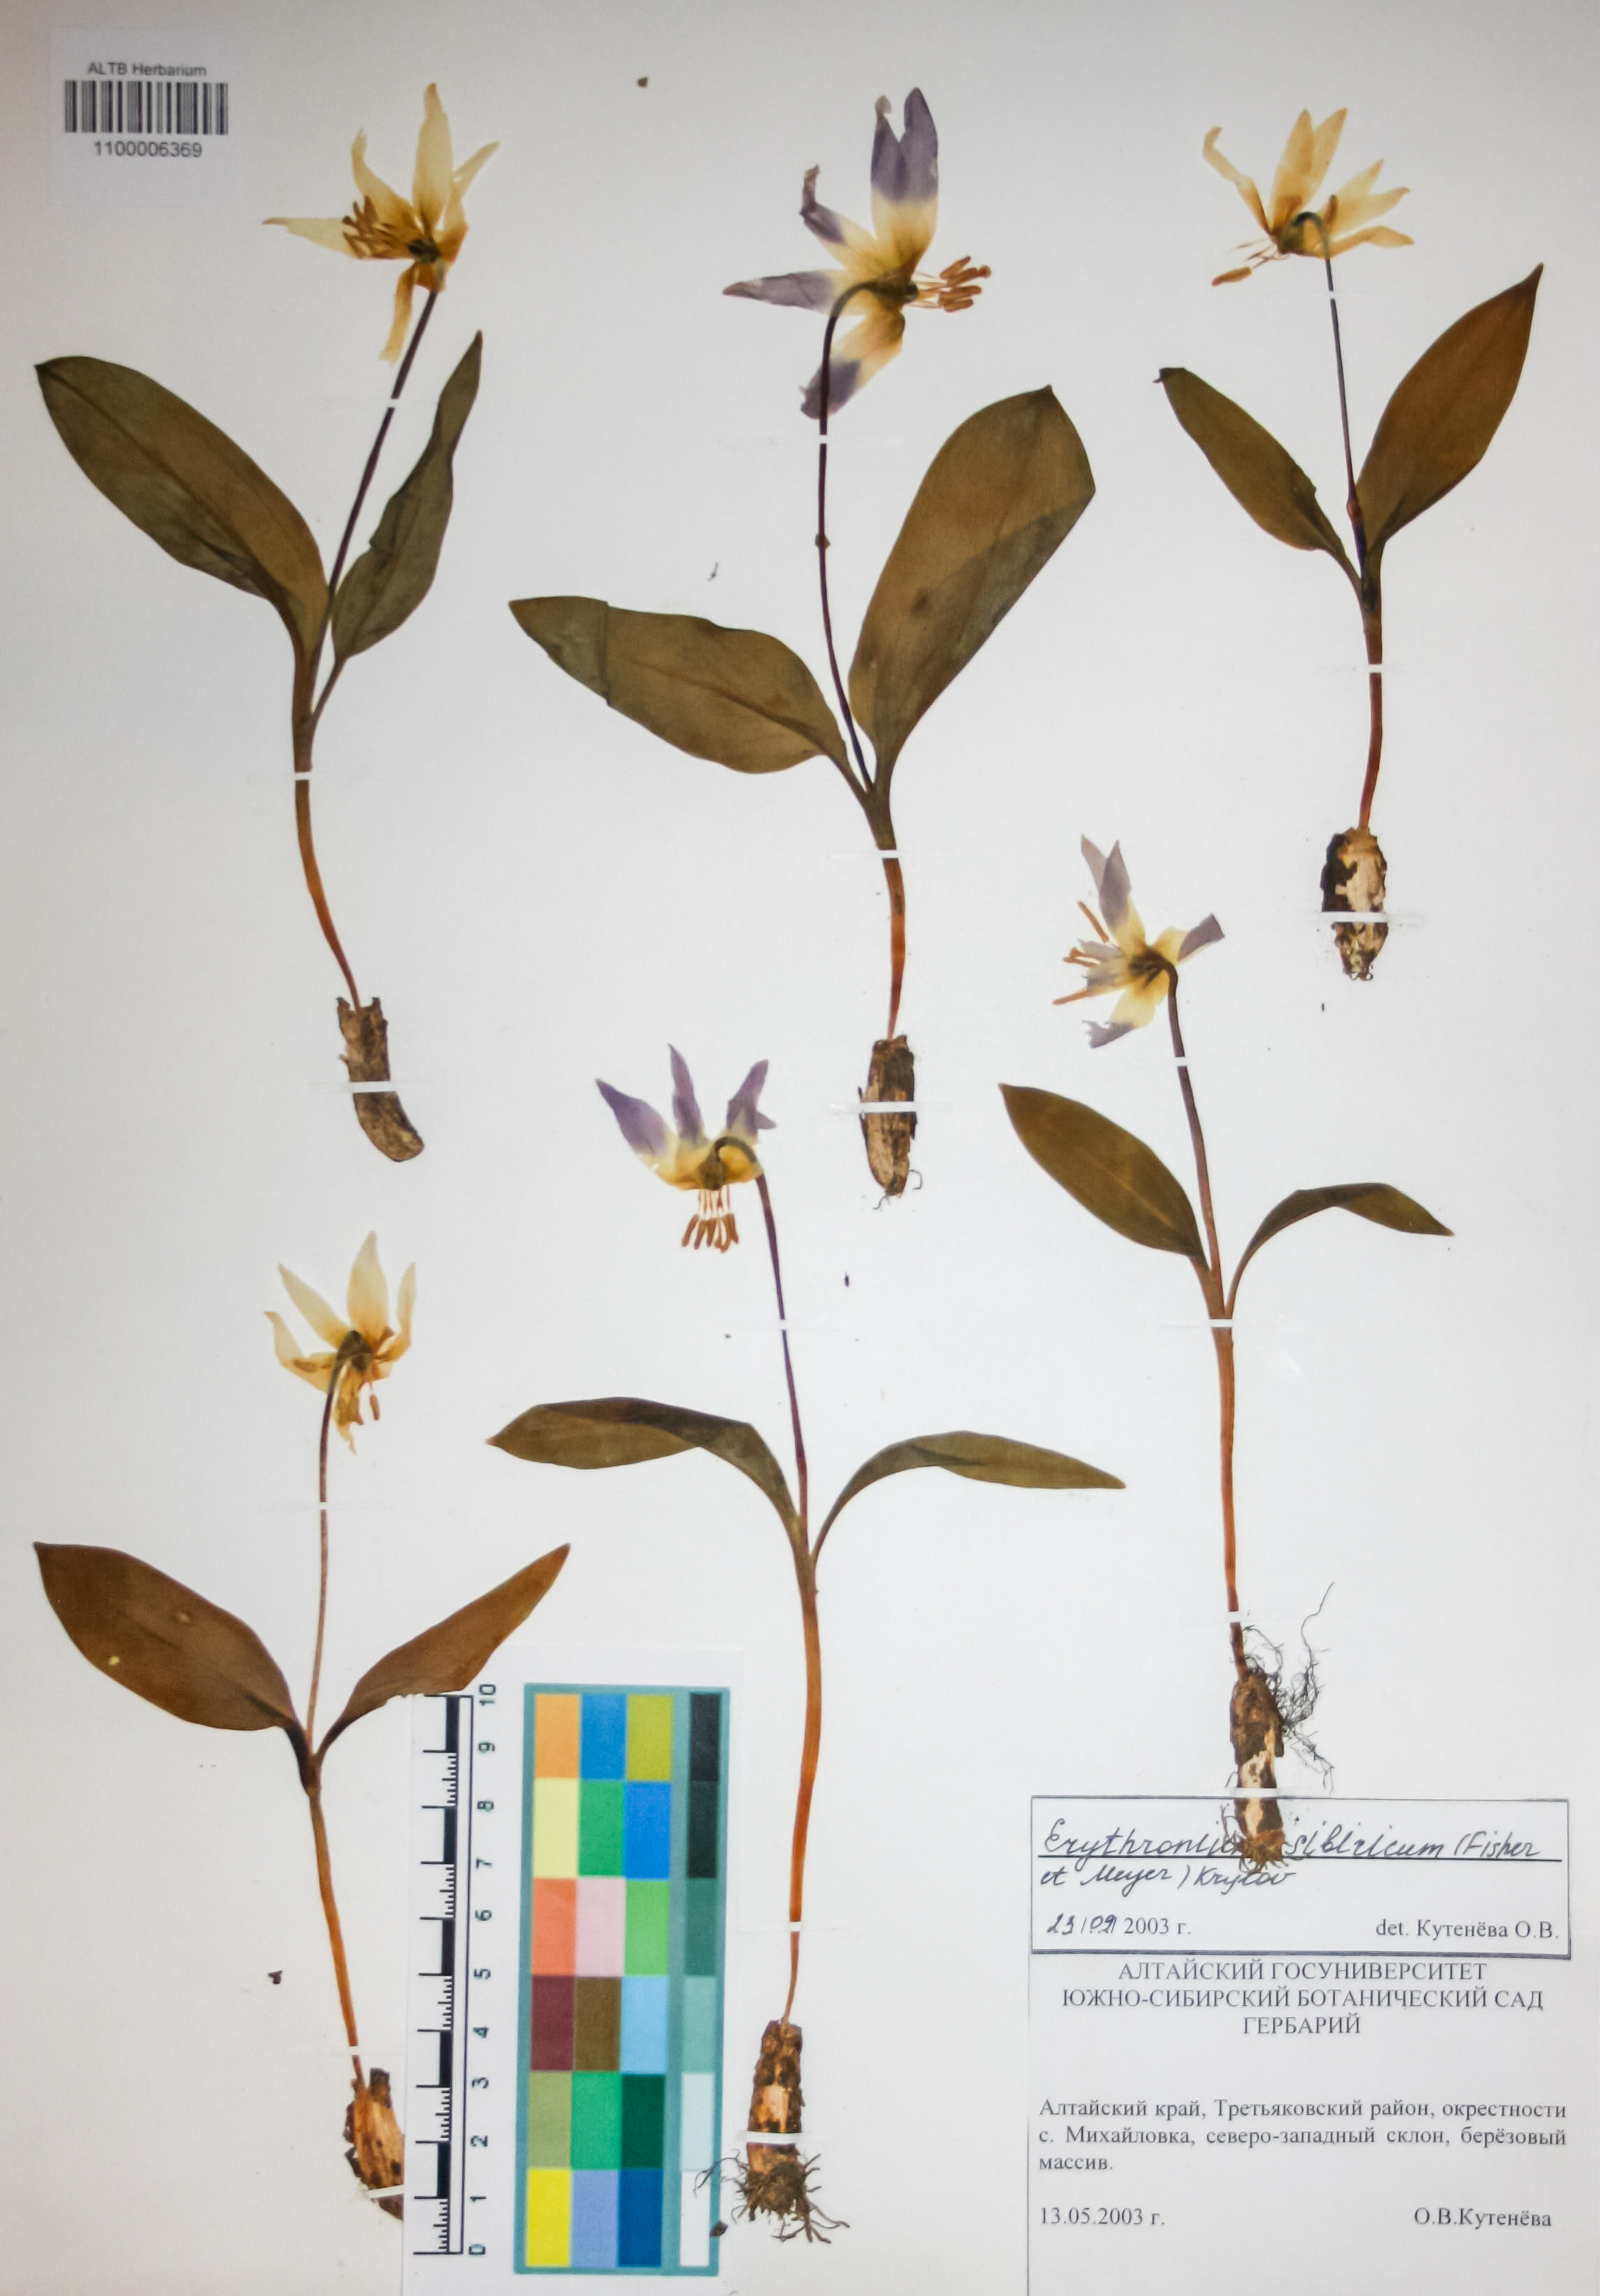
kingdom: Plantae
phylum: Tracheophyta
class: Liliopsida
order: Liliales
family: Liliaceae
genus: Erythronium
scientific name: Erythronium sibiricum
